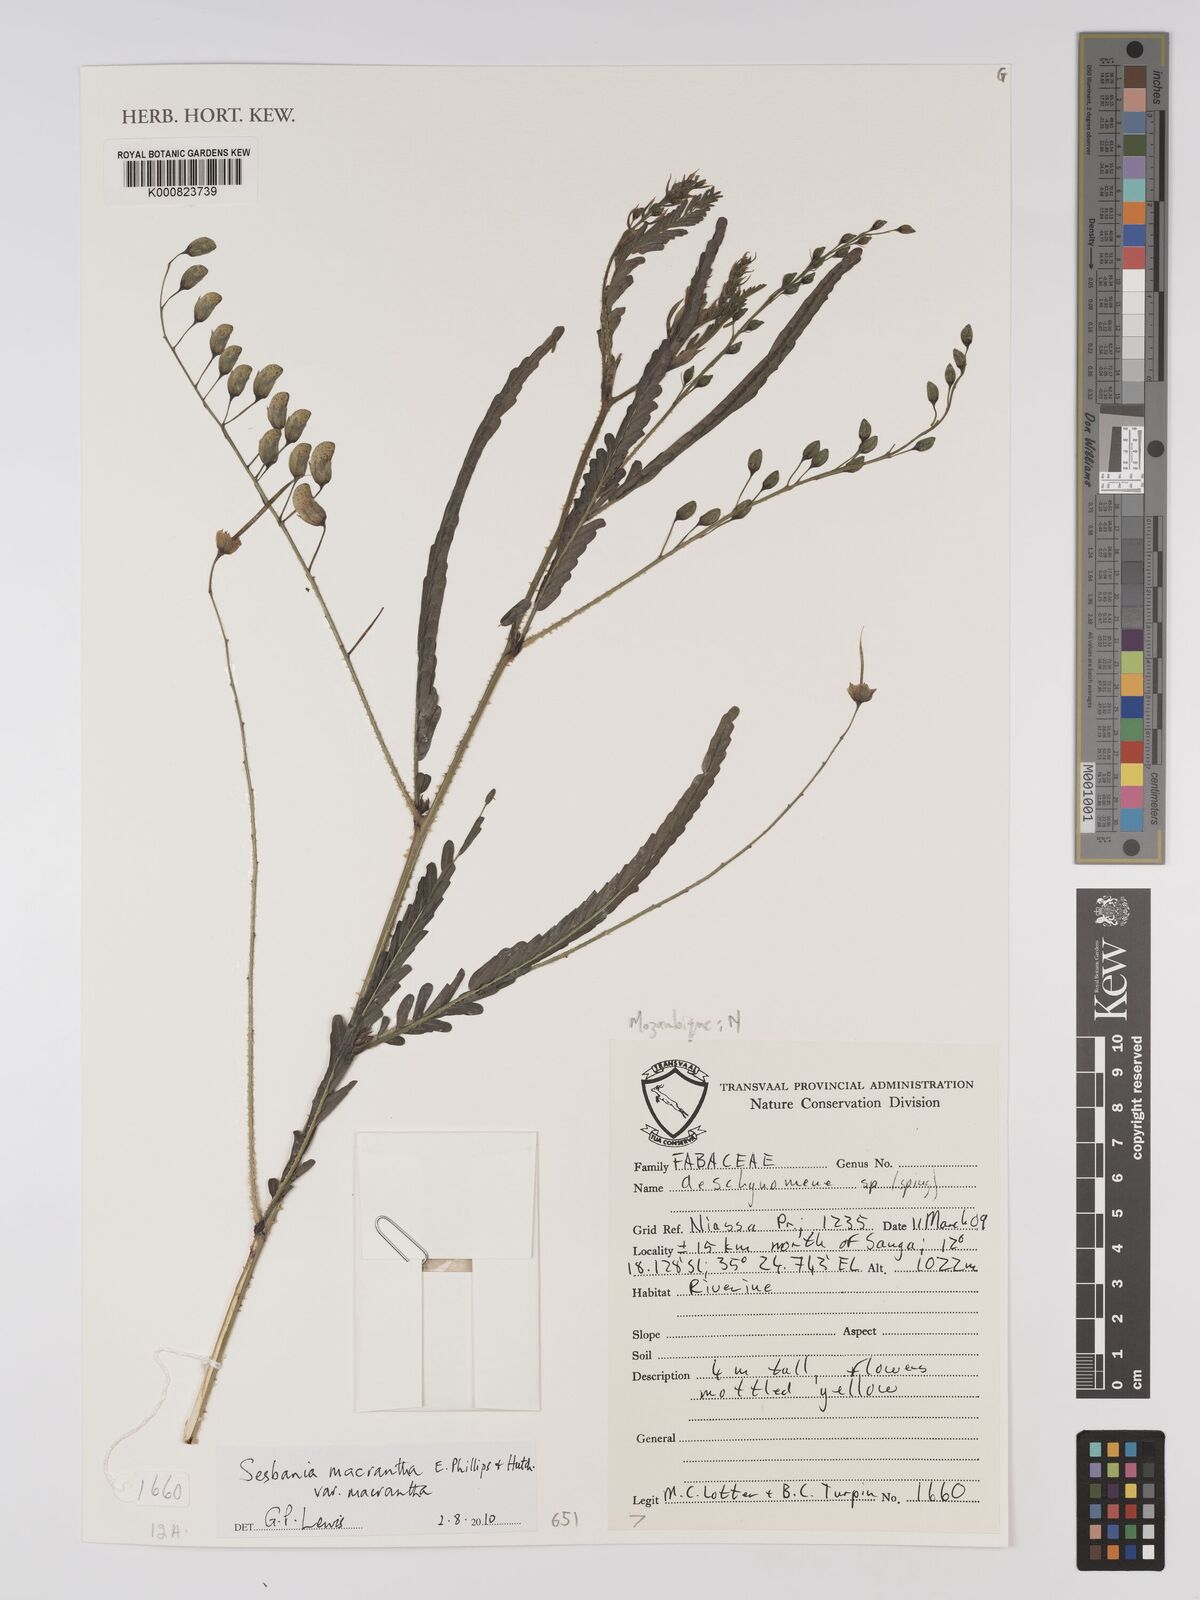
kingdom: Plantae
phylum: Tracheophyta
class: Magnoliopsida
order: Fabales
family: Fabaceae
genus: Sesbania
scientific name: Sesbania macrantha
